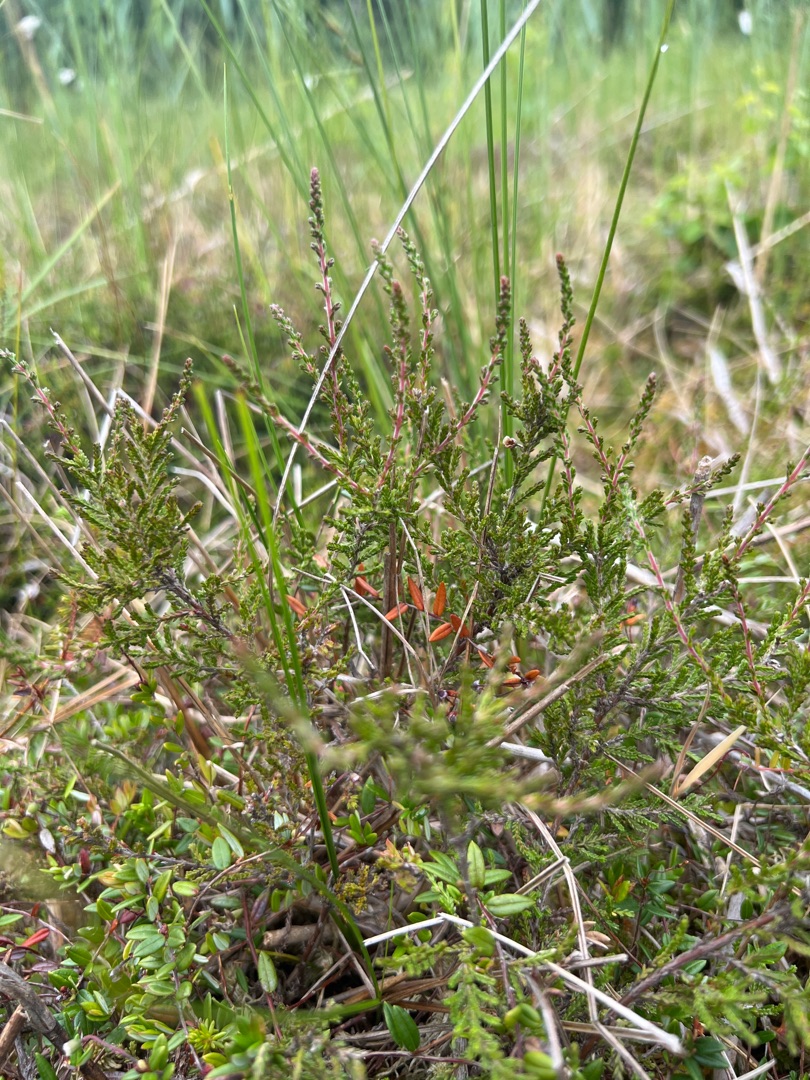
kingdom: Plantae
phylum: Tracheophyta
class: Magnoliopsida
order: Ericales
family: Ericaceae
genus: Calluna
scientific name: Calluna vulgaris
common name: Hedelyng
